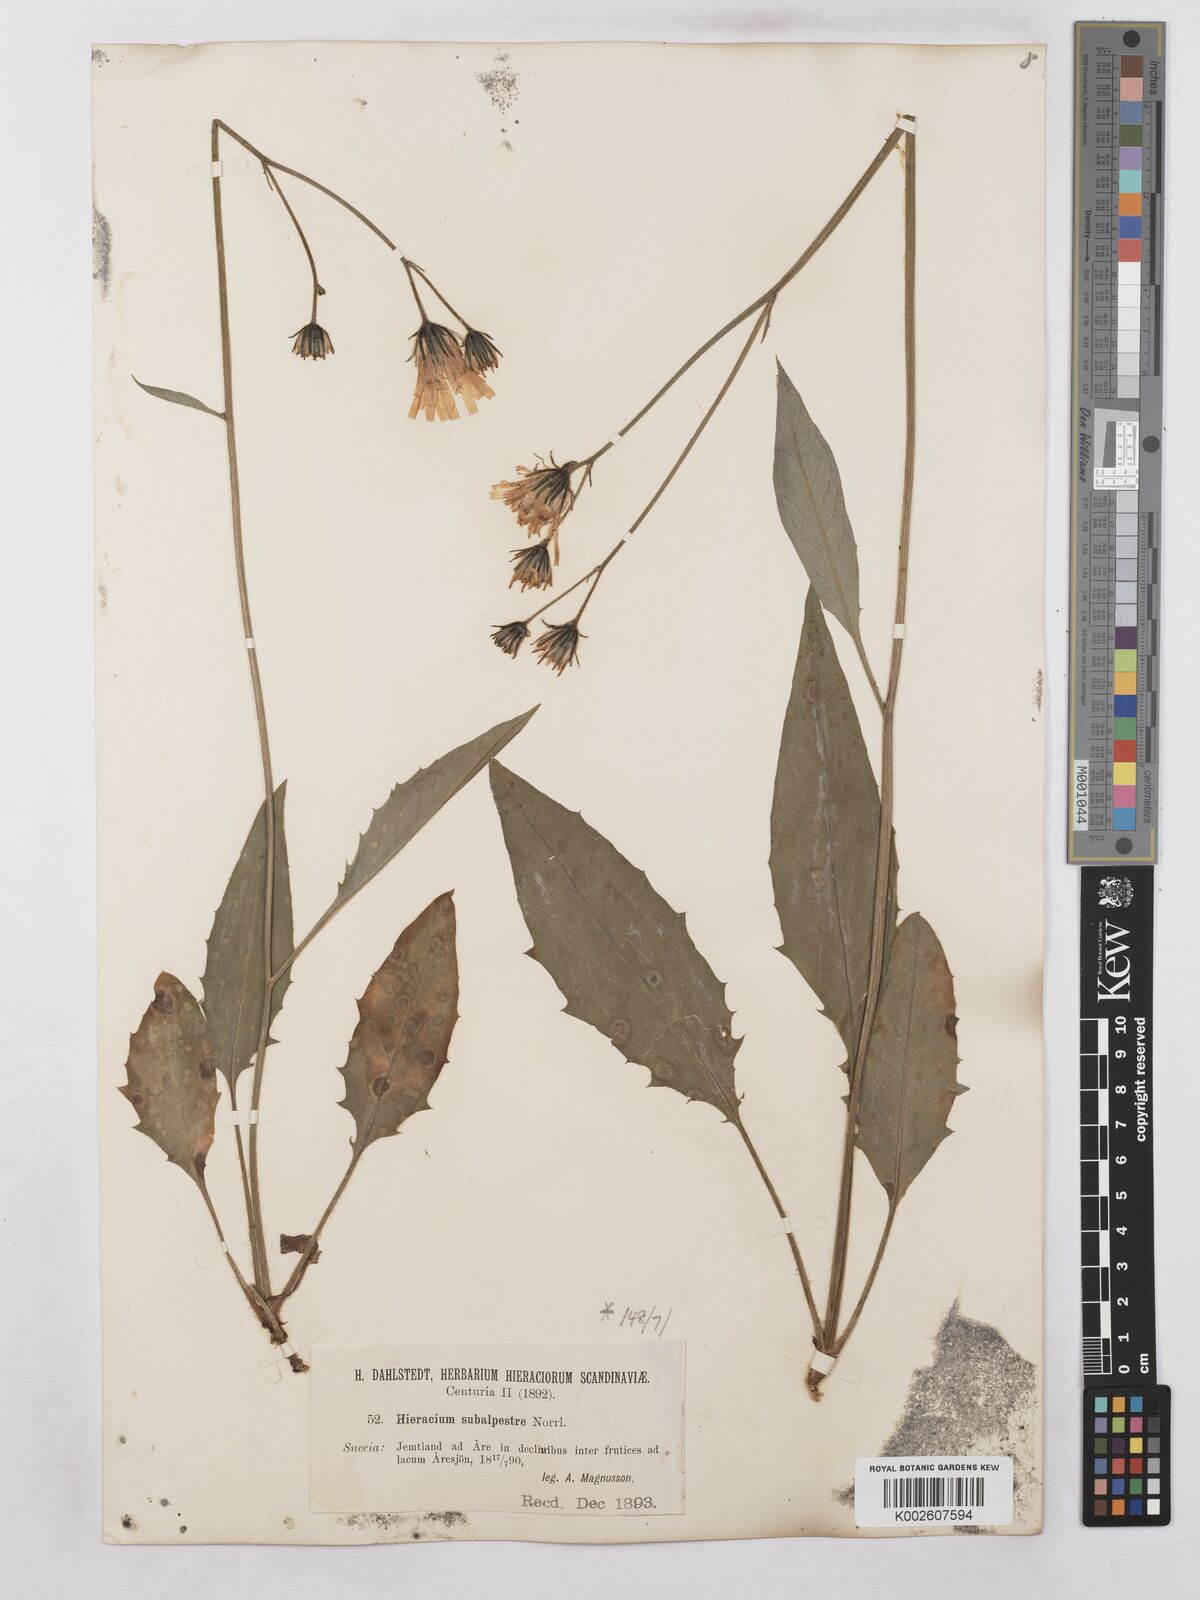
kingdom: Plantae
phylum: Tracheophyta
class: Magnoliopsida
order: Asterales
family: Asteraceae
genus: Hieracium
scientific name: Hieracium subramosum
